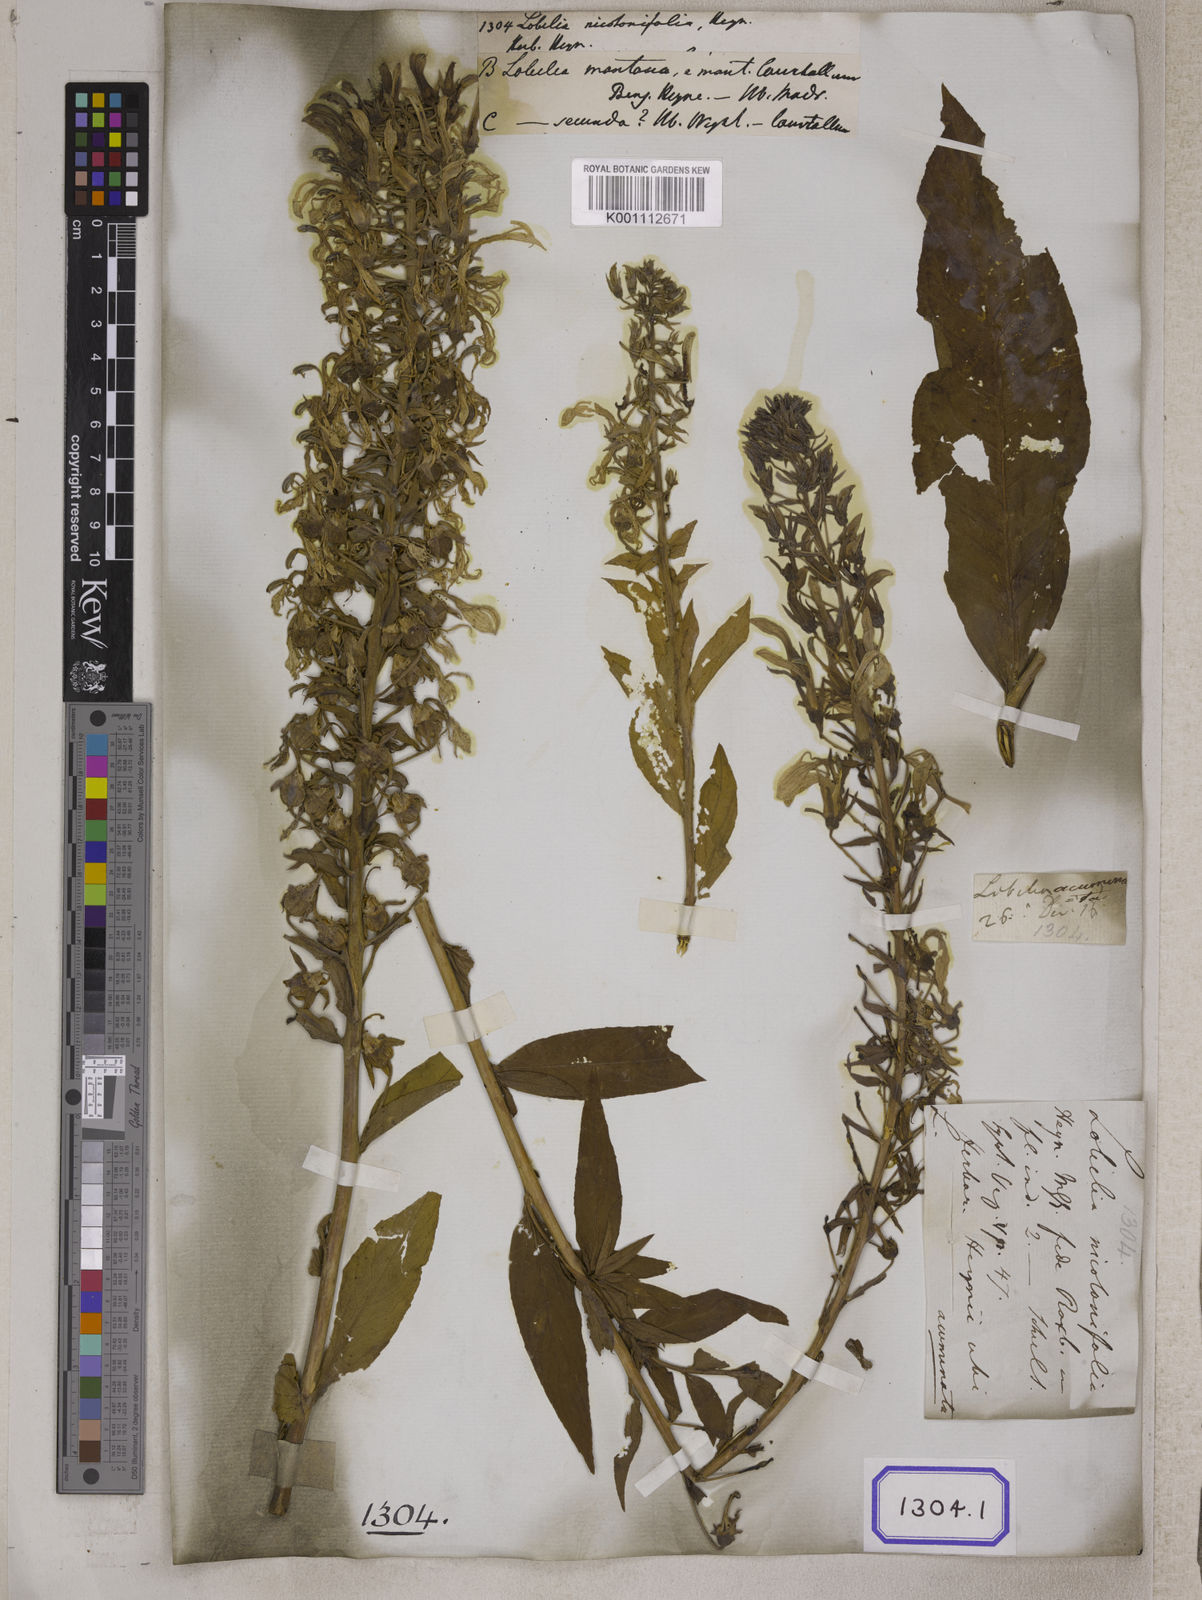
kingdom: Plantae
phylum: Tracheophyta
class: Magnoliopsida
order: Asterales
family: Campanulaceae
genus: Lobelia
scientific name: Lobelia
